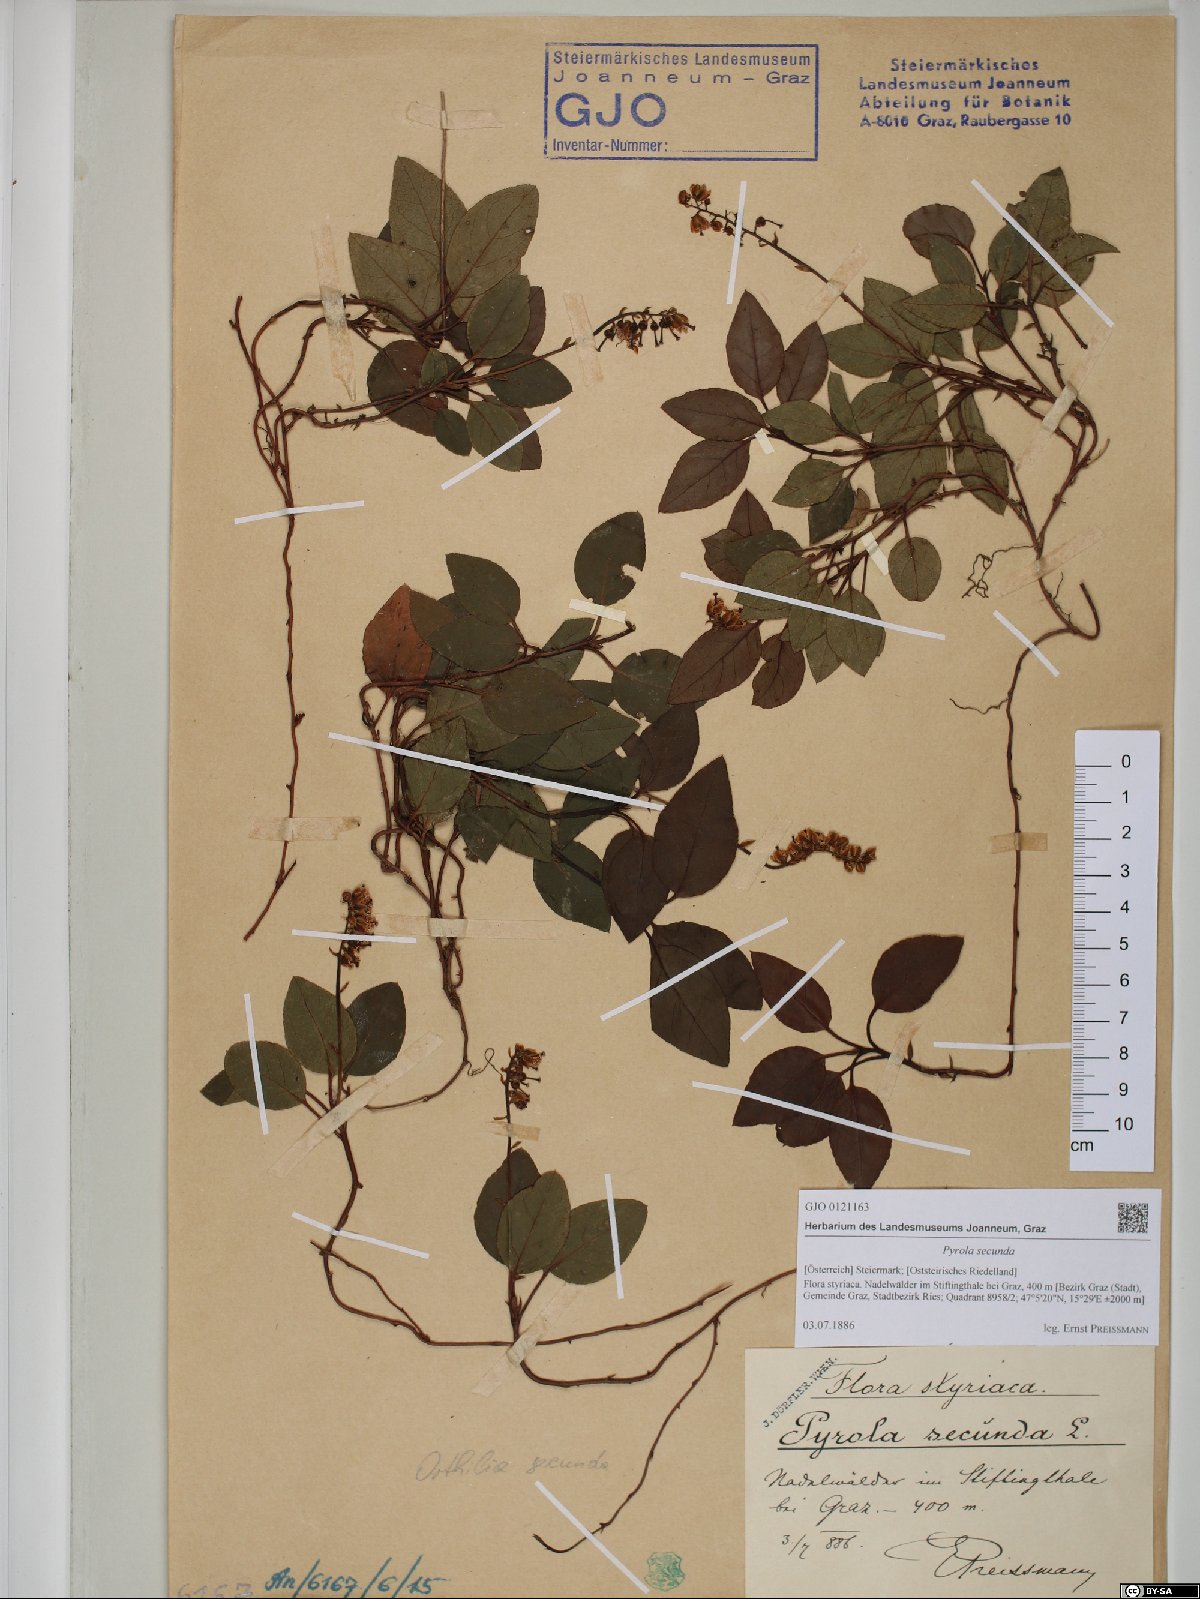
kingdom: Plantae
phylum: Tracheophyta
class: Magnoliopsida
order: Ericales
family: Ericaceae
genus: Orthilia
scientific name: Orthilia secunda
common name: One-sided orthilia
